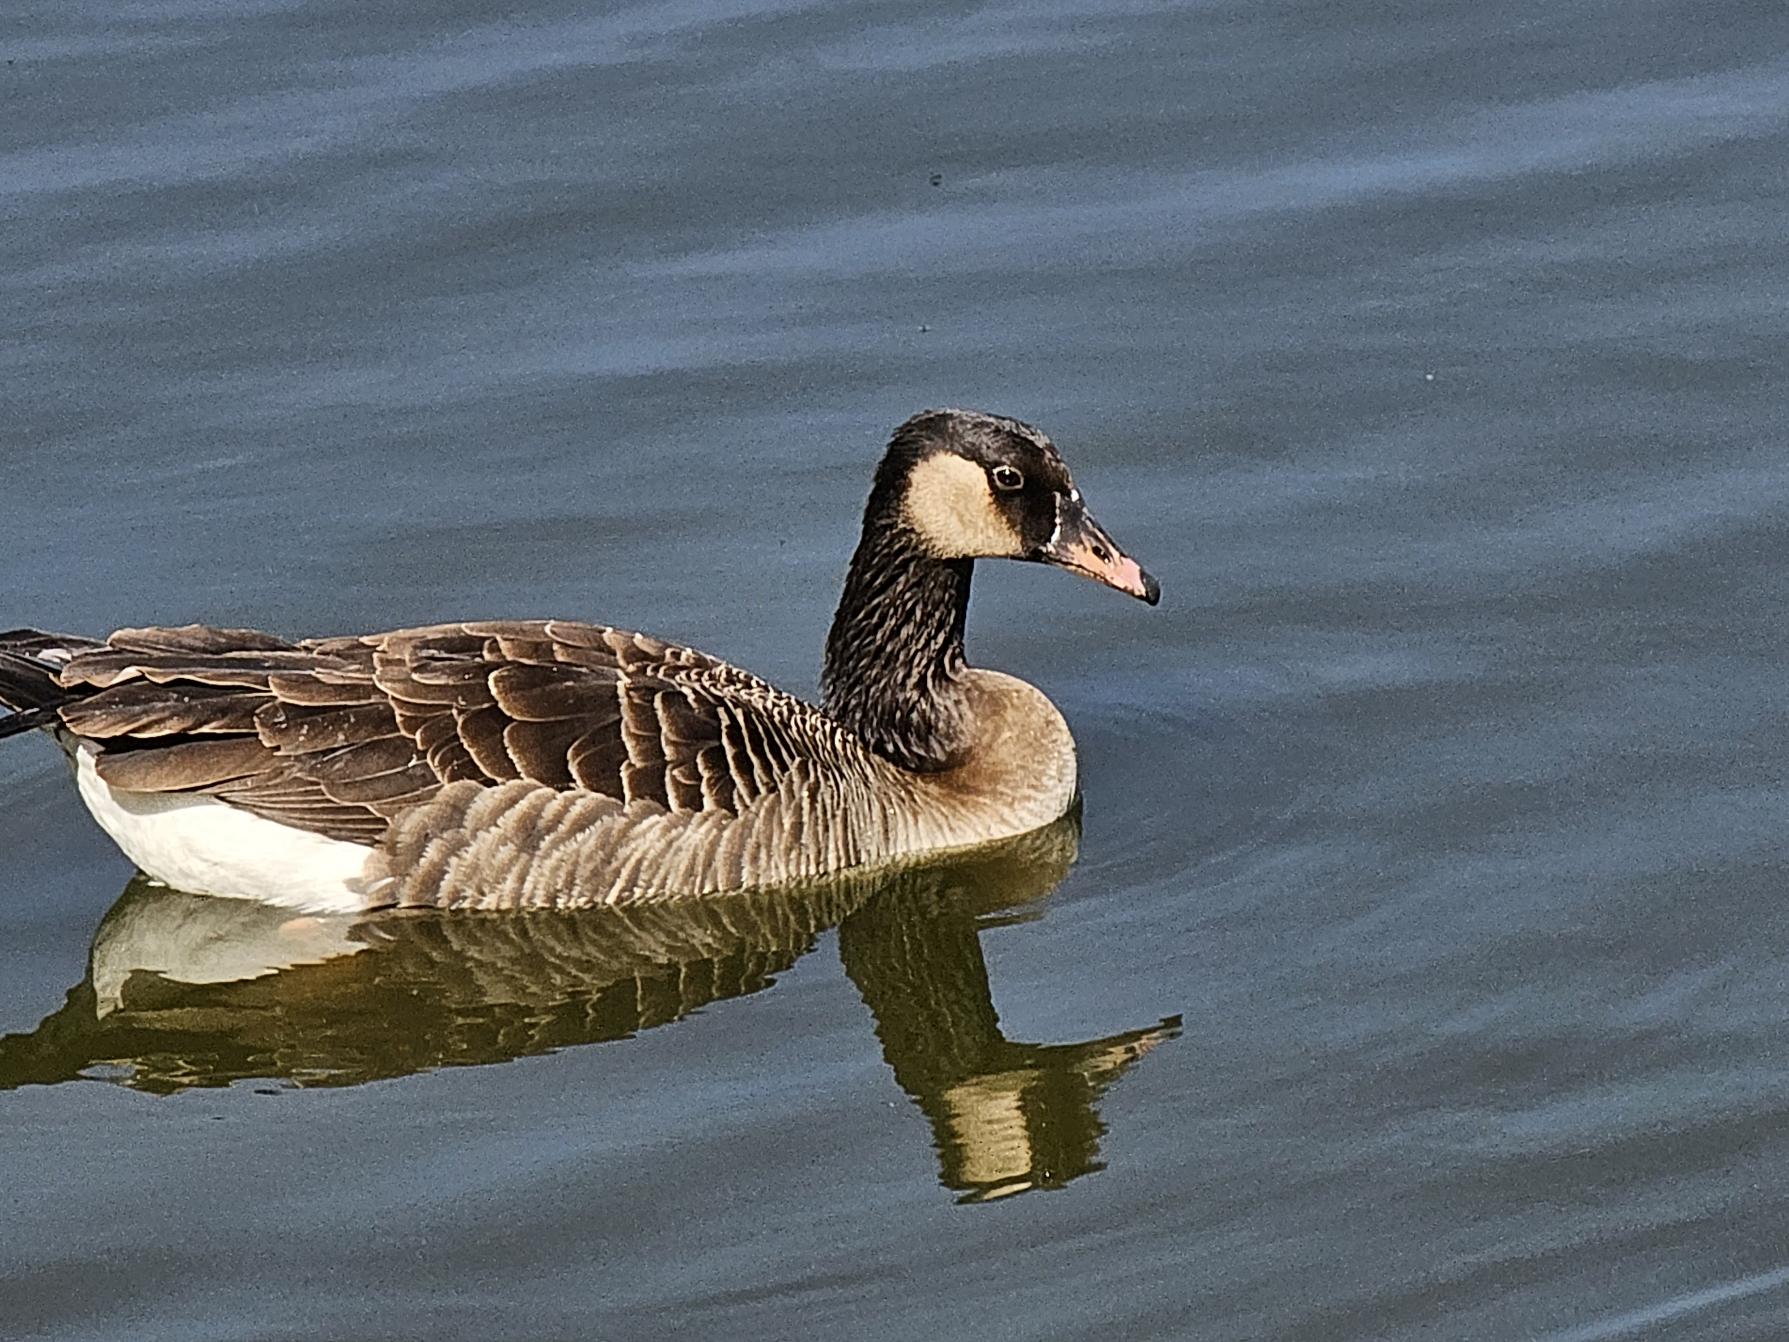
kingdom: Animalia
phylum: Chordata
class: Aves
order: Anseriformes
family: Anatidae
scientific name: Anatidae
